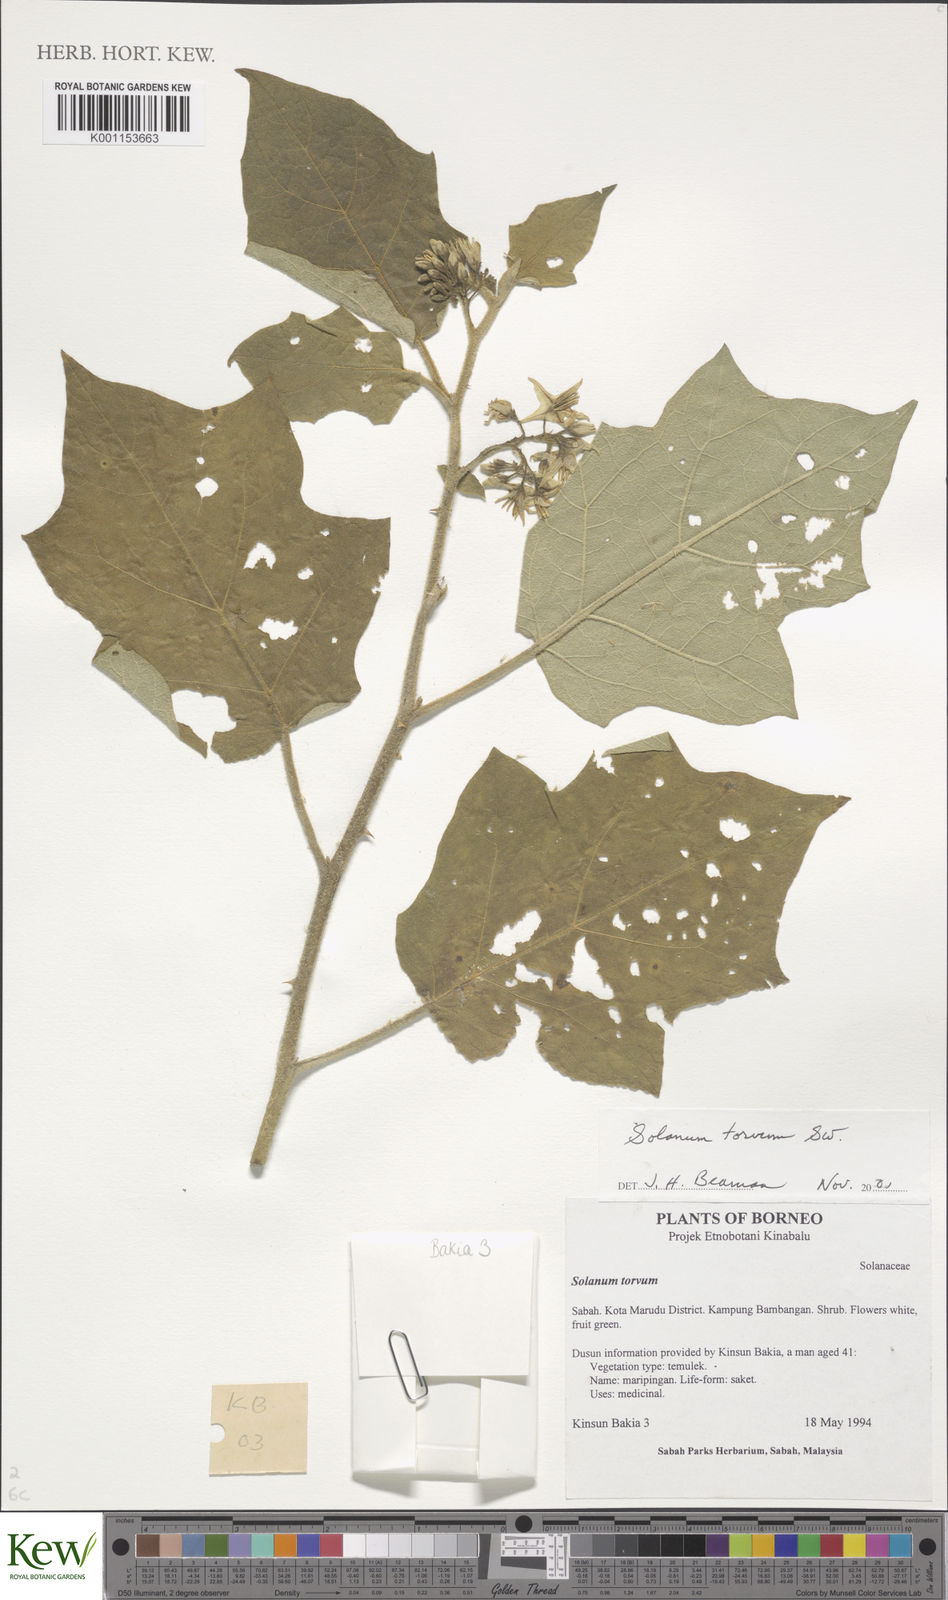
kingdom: Plantae
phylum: Tracheophyta
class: Magnoliopsida
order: Solanales
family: Solanaceae
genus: Solanum
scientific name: Solanum torvum
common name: Turkey berry
